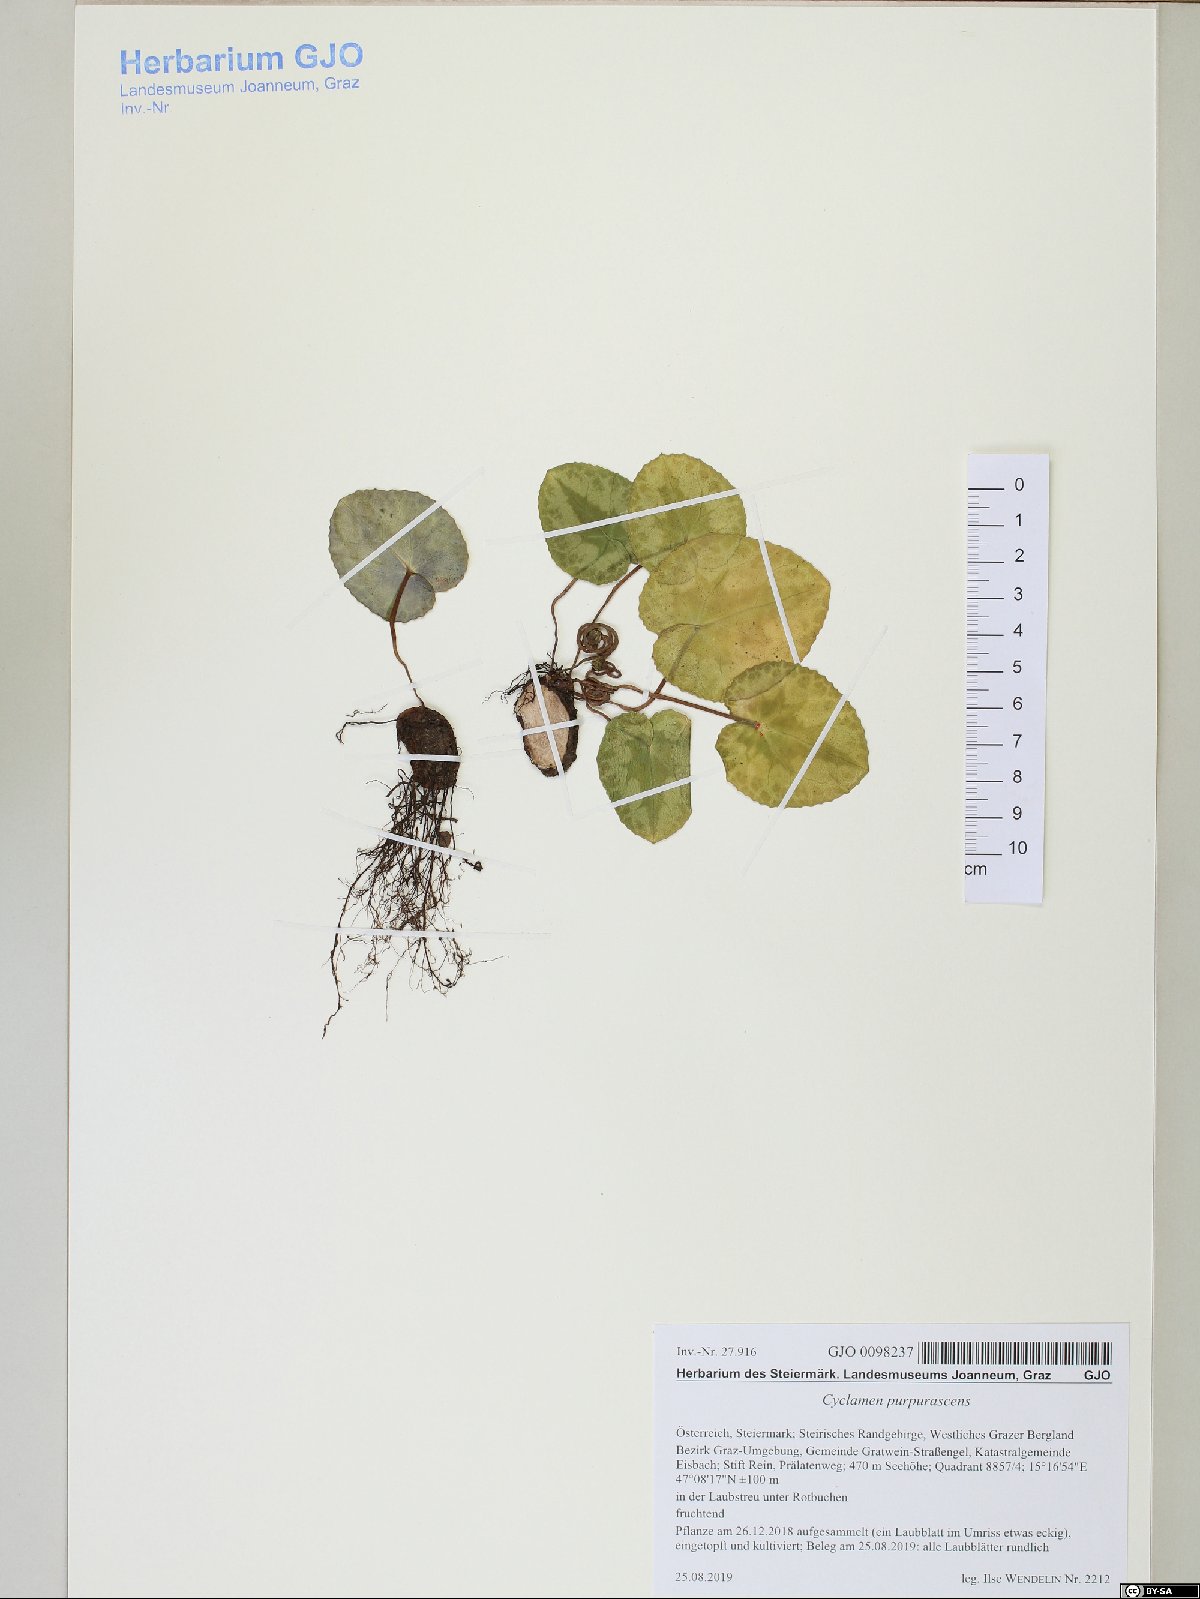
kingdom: Plantae
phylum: Tracheophyta
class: Magnoliopsida
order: Ericales
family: Primulaceae
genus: Cyclamen
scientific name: Cyclamen purpurascens
